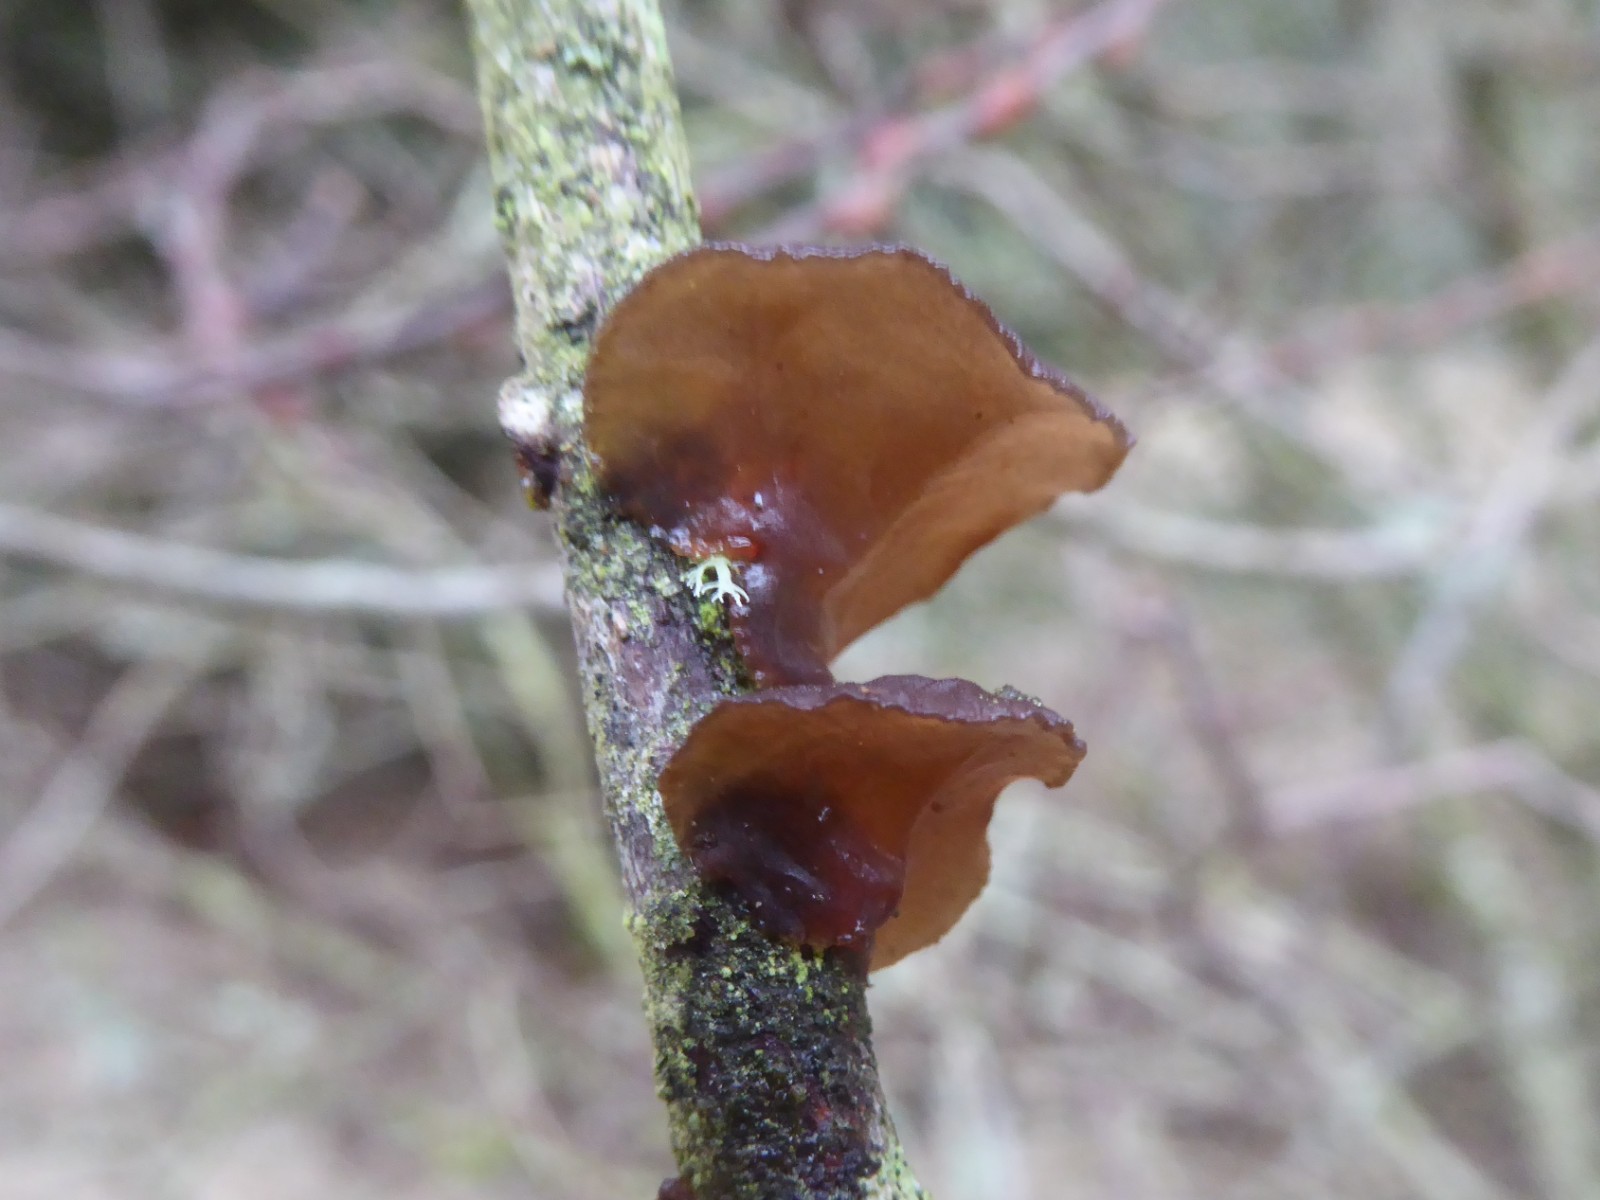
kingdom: Fungi
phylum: Basidiomycota
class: Agaricomycetes
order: Auriculariales
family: Auriculariaceae
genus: Exidia
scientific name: Exidia recisa
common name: pile-bævretop
